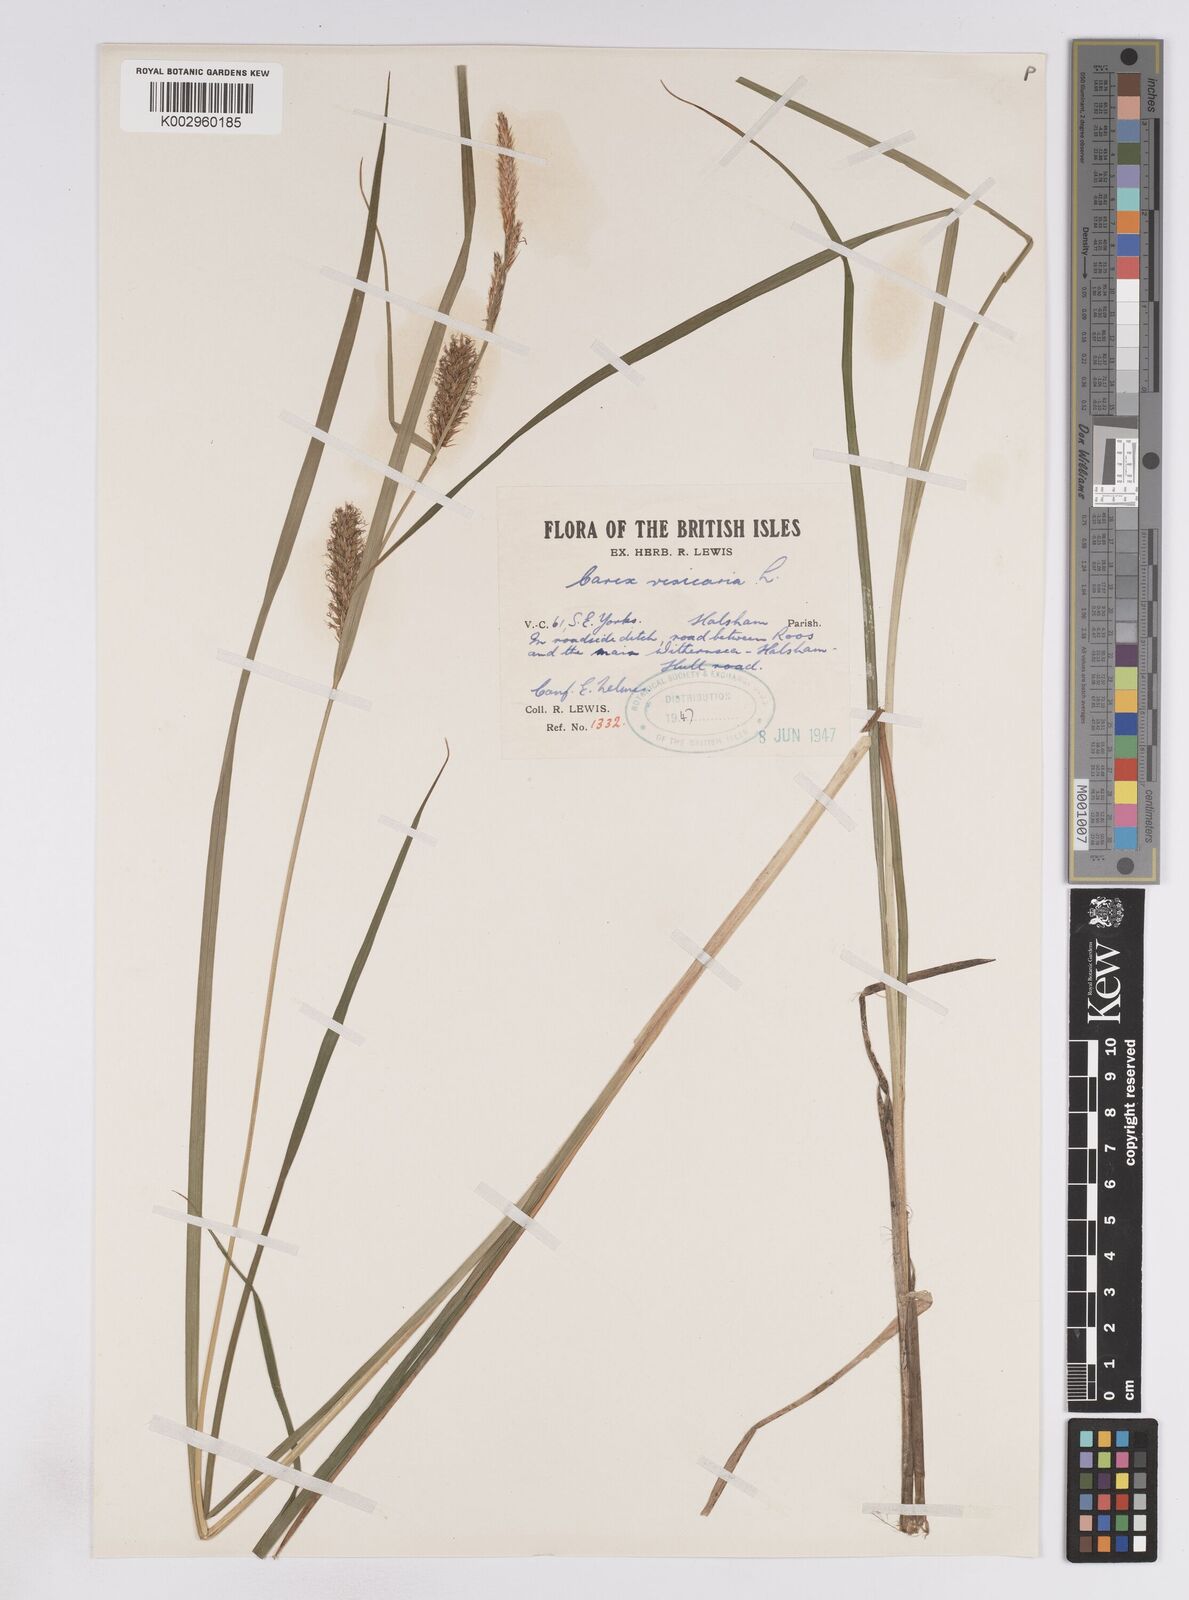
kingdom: Plantae
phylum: Tracheophyta
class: Liliopsida
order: Poales
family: Cyperaceae
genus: Carex
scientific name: Carex vesicaria
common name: Bladder-sedge
